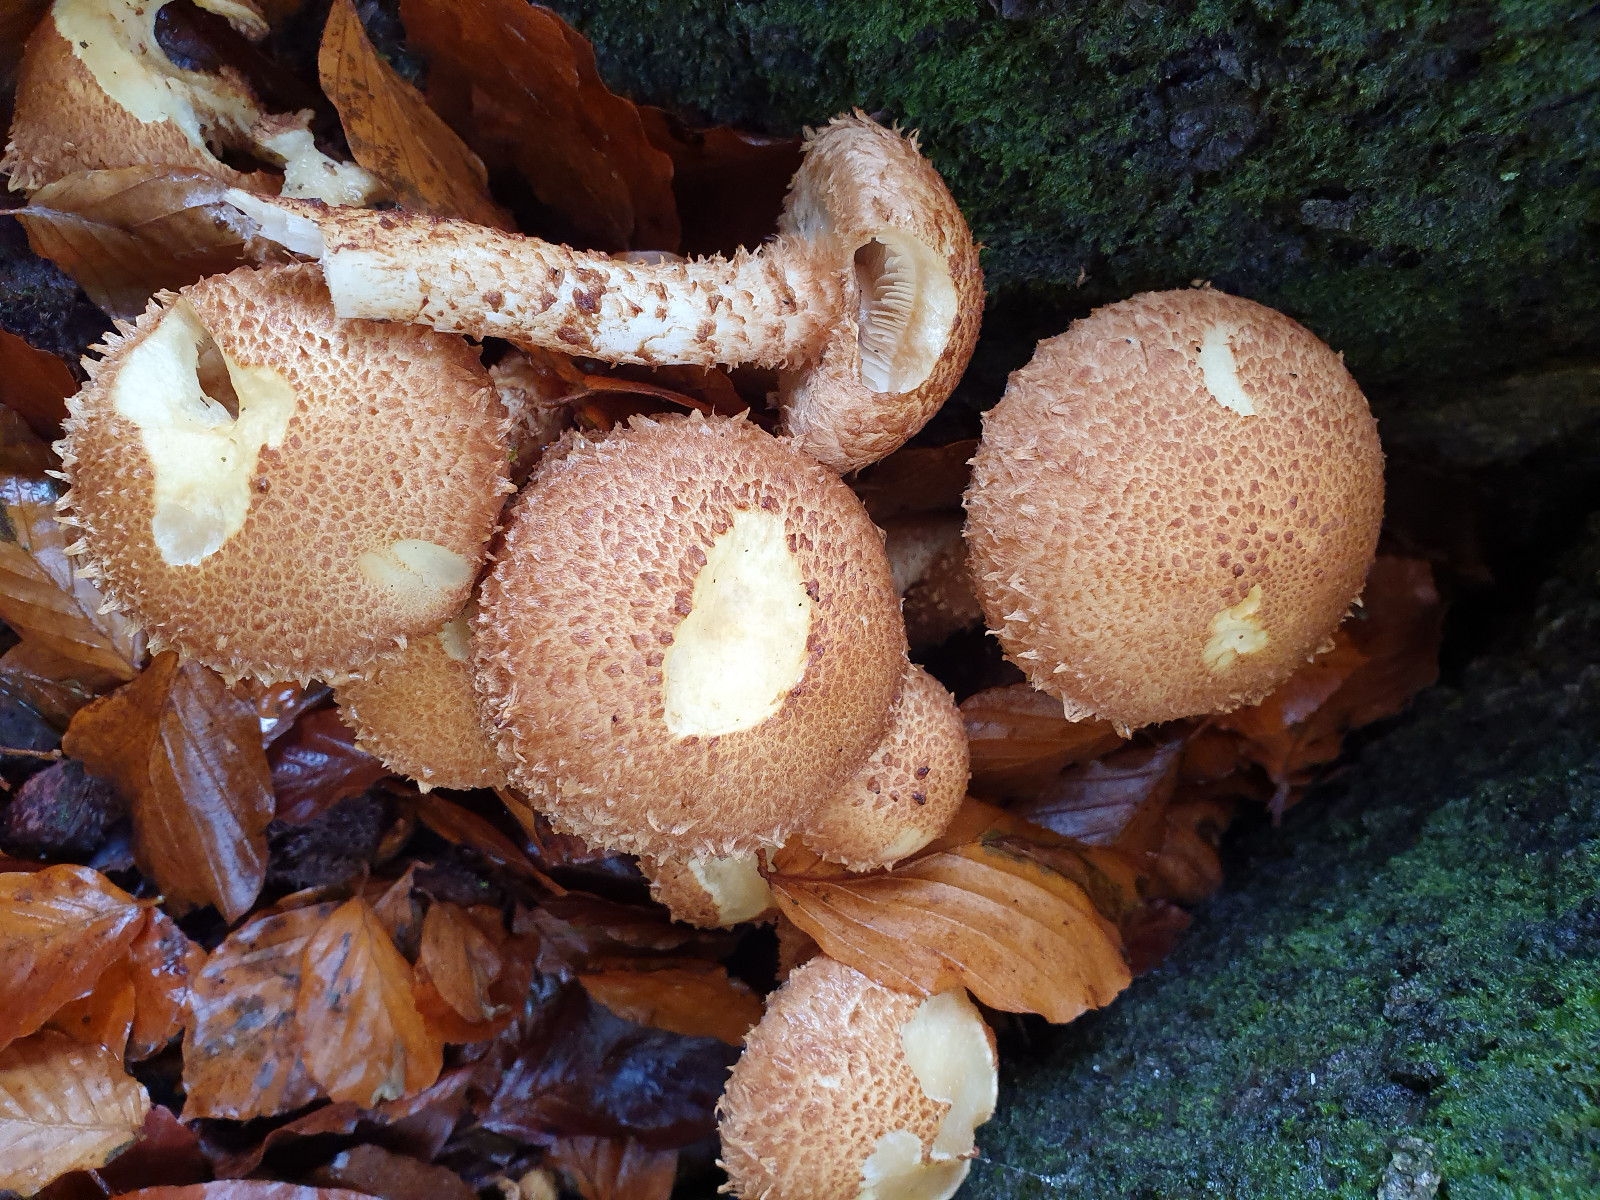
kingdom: Fungi
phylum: Basidiomycota
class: Agaricomycetes
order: Agaricales
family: Strophariaceae
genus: Pholiota
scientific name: Pholiota squarrosa
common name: krumskællet skælhat
